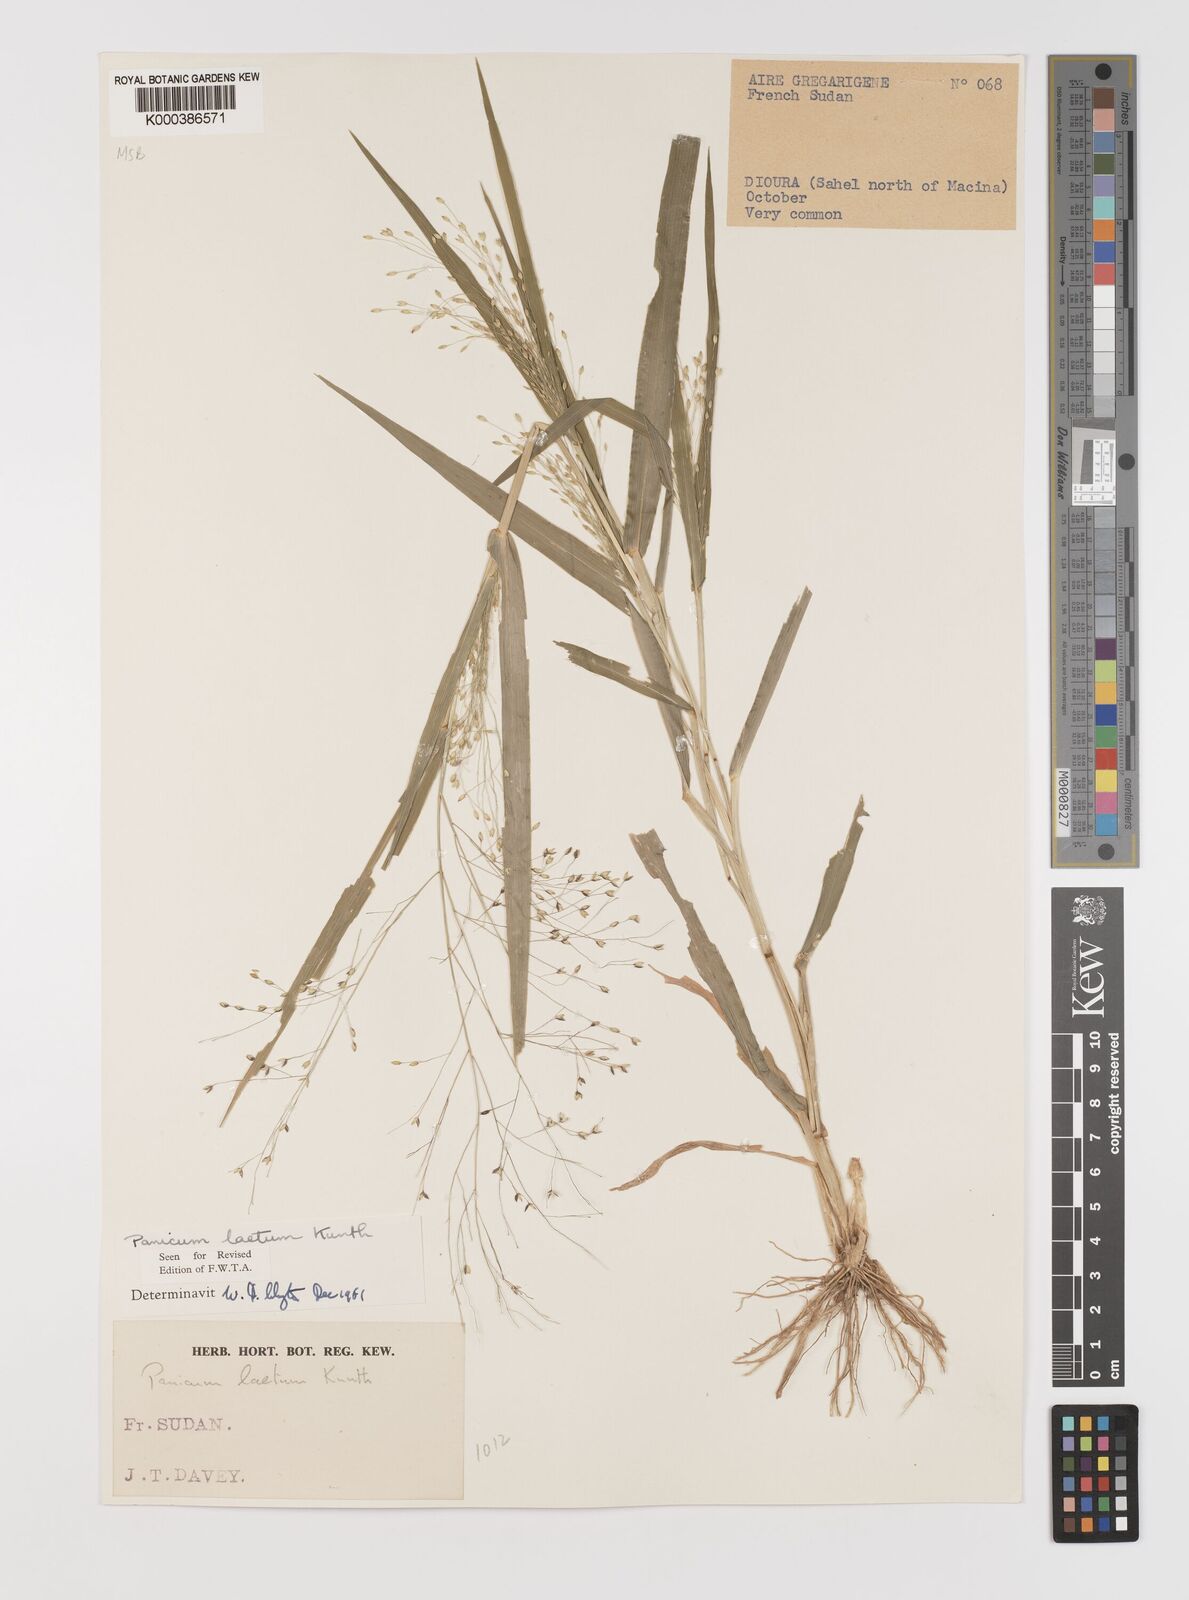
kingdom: Plantae
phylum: Tracheophyta
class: Liliopsida
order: Poales
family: Poaceae
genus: Panicum
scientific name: Panicum laetum
